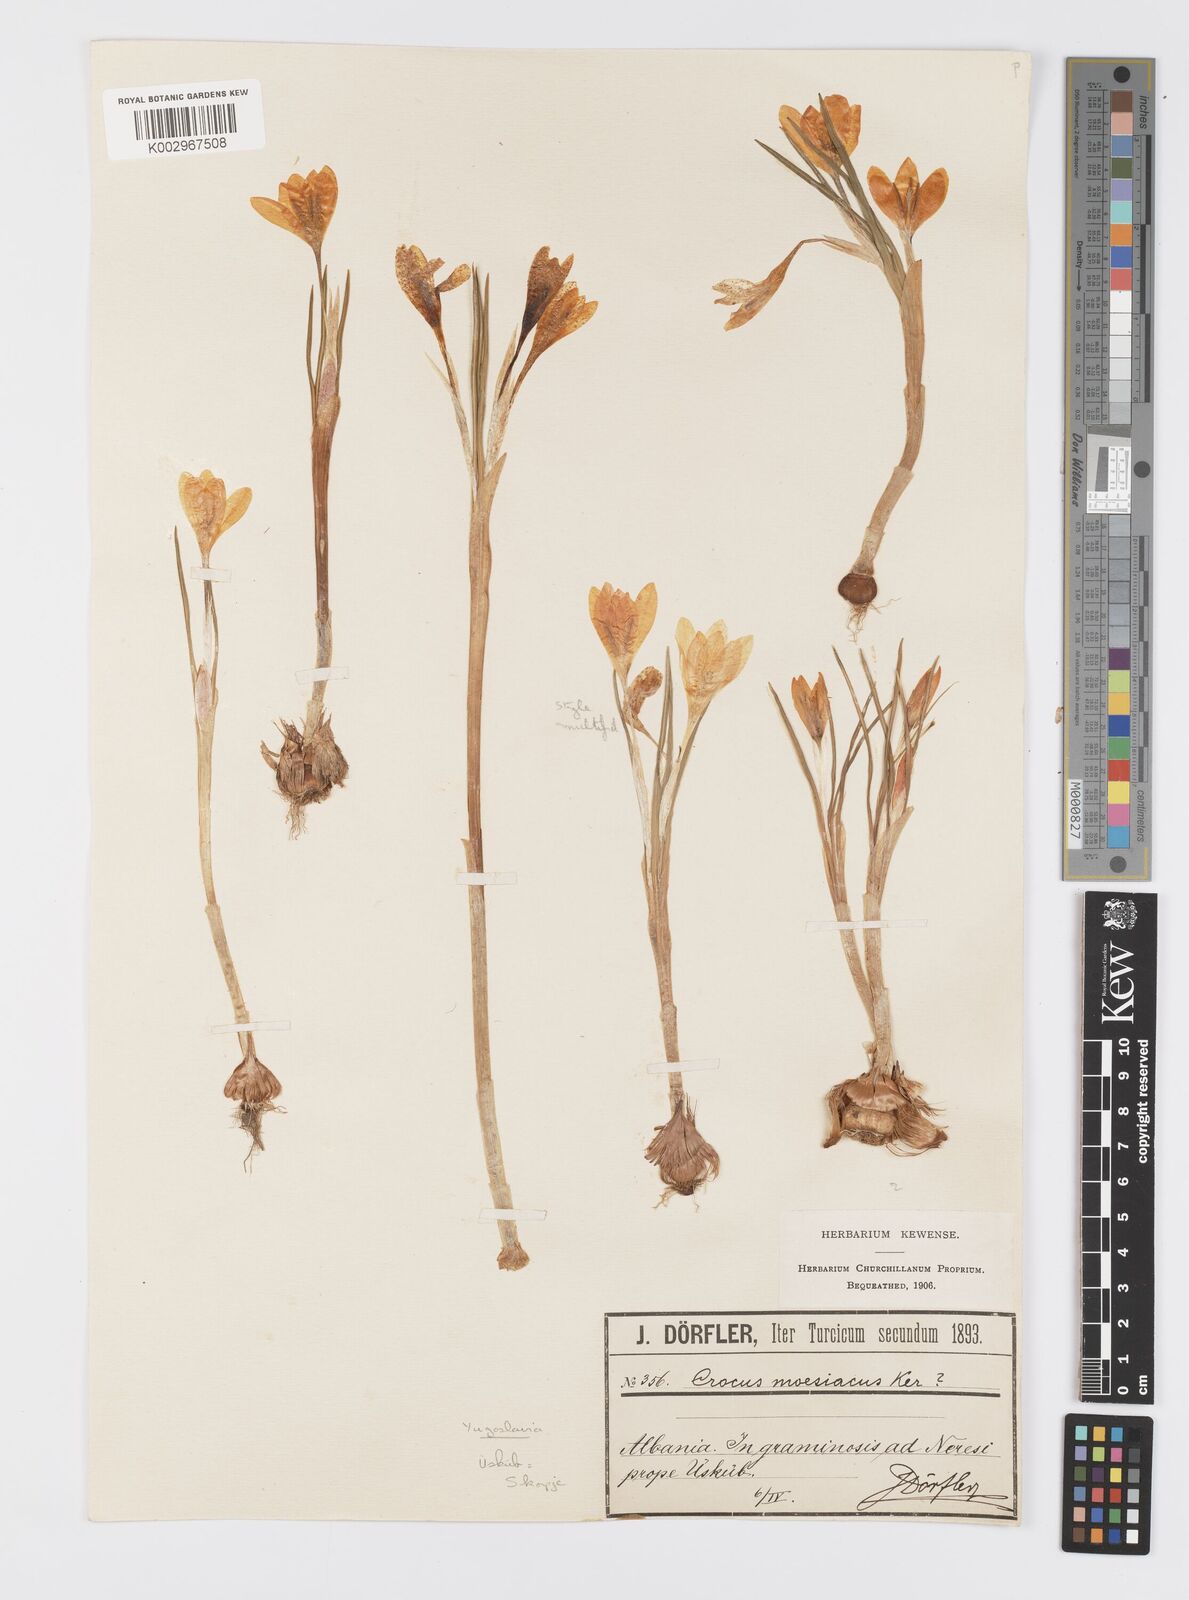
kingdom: Plantae
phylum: Tracheophyta
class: Liliopsida
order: Asparagales
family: Iridaceae
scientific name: Iridaceae
